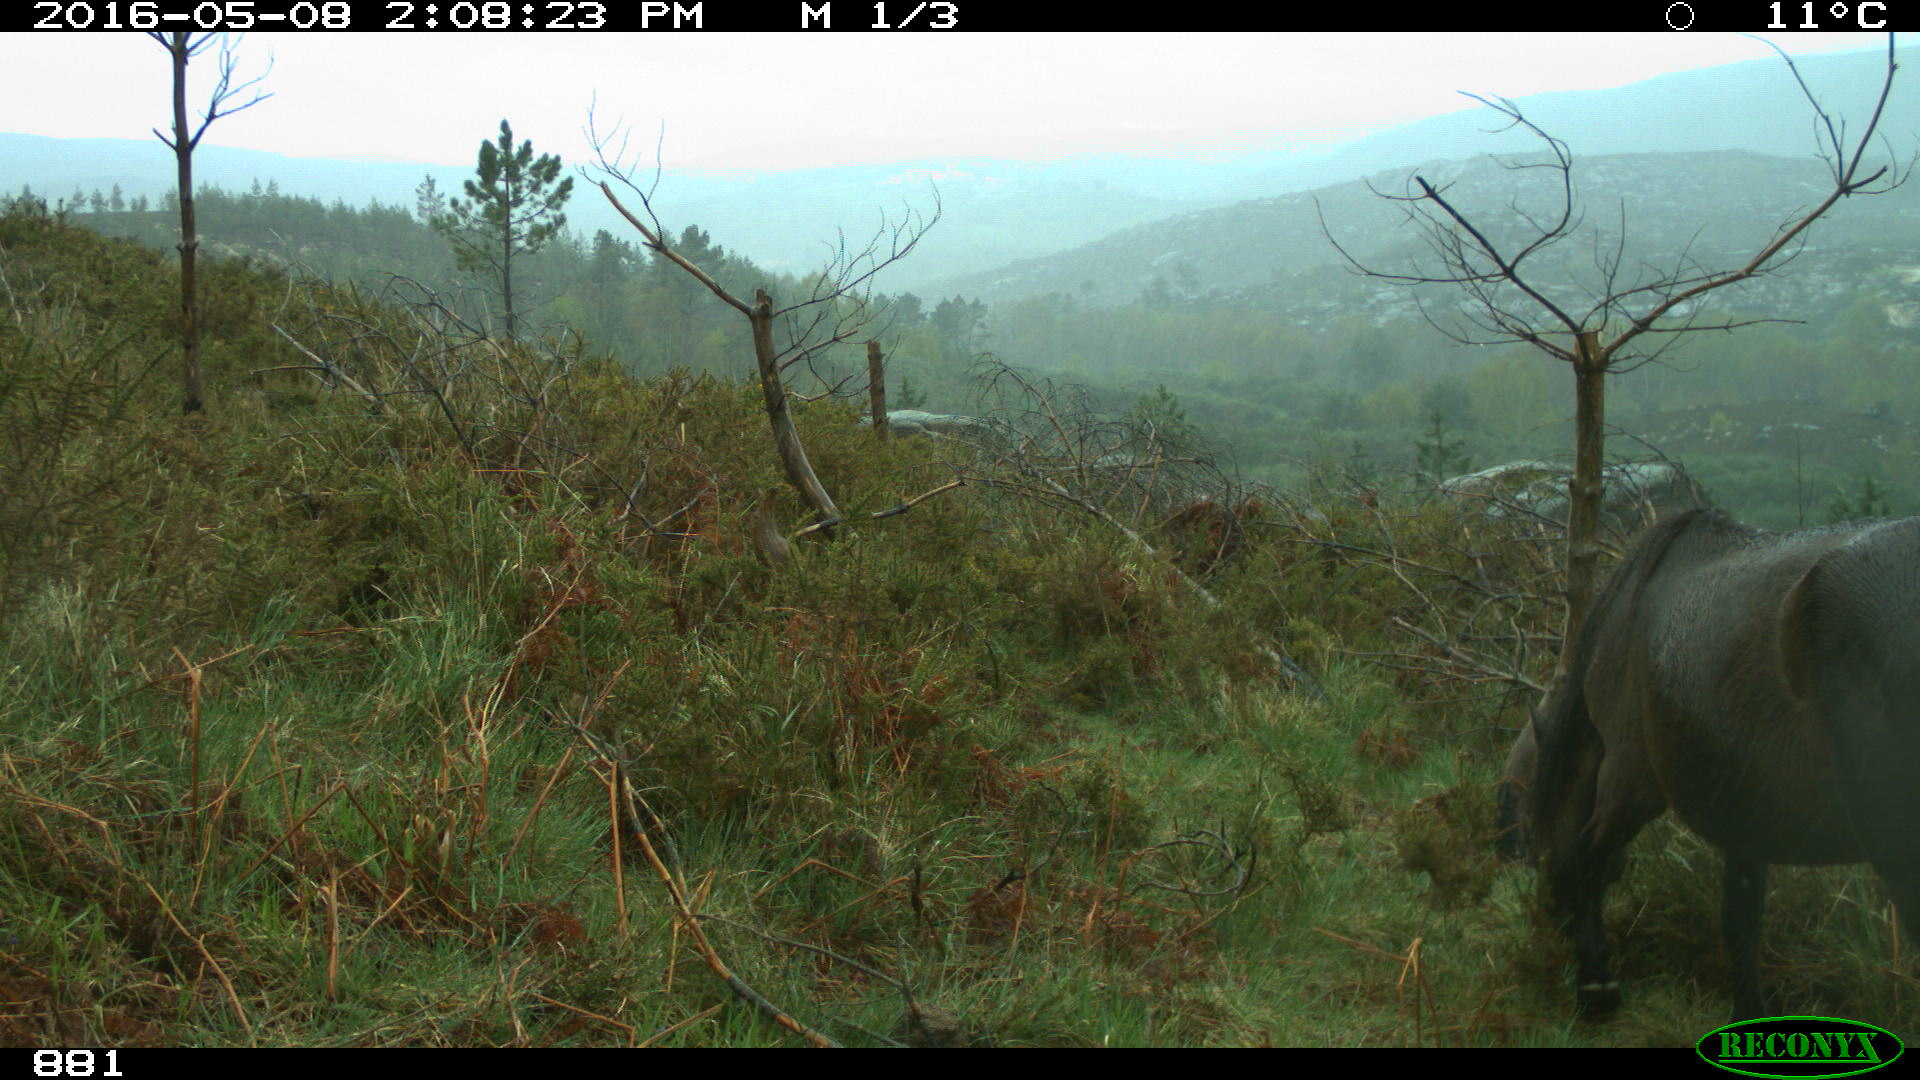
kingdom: Animalia
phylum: Chordata
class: Mammalia
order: Perissodactyla
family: Equidae
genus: Equus
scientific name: Equus caballus
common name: Horse
